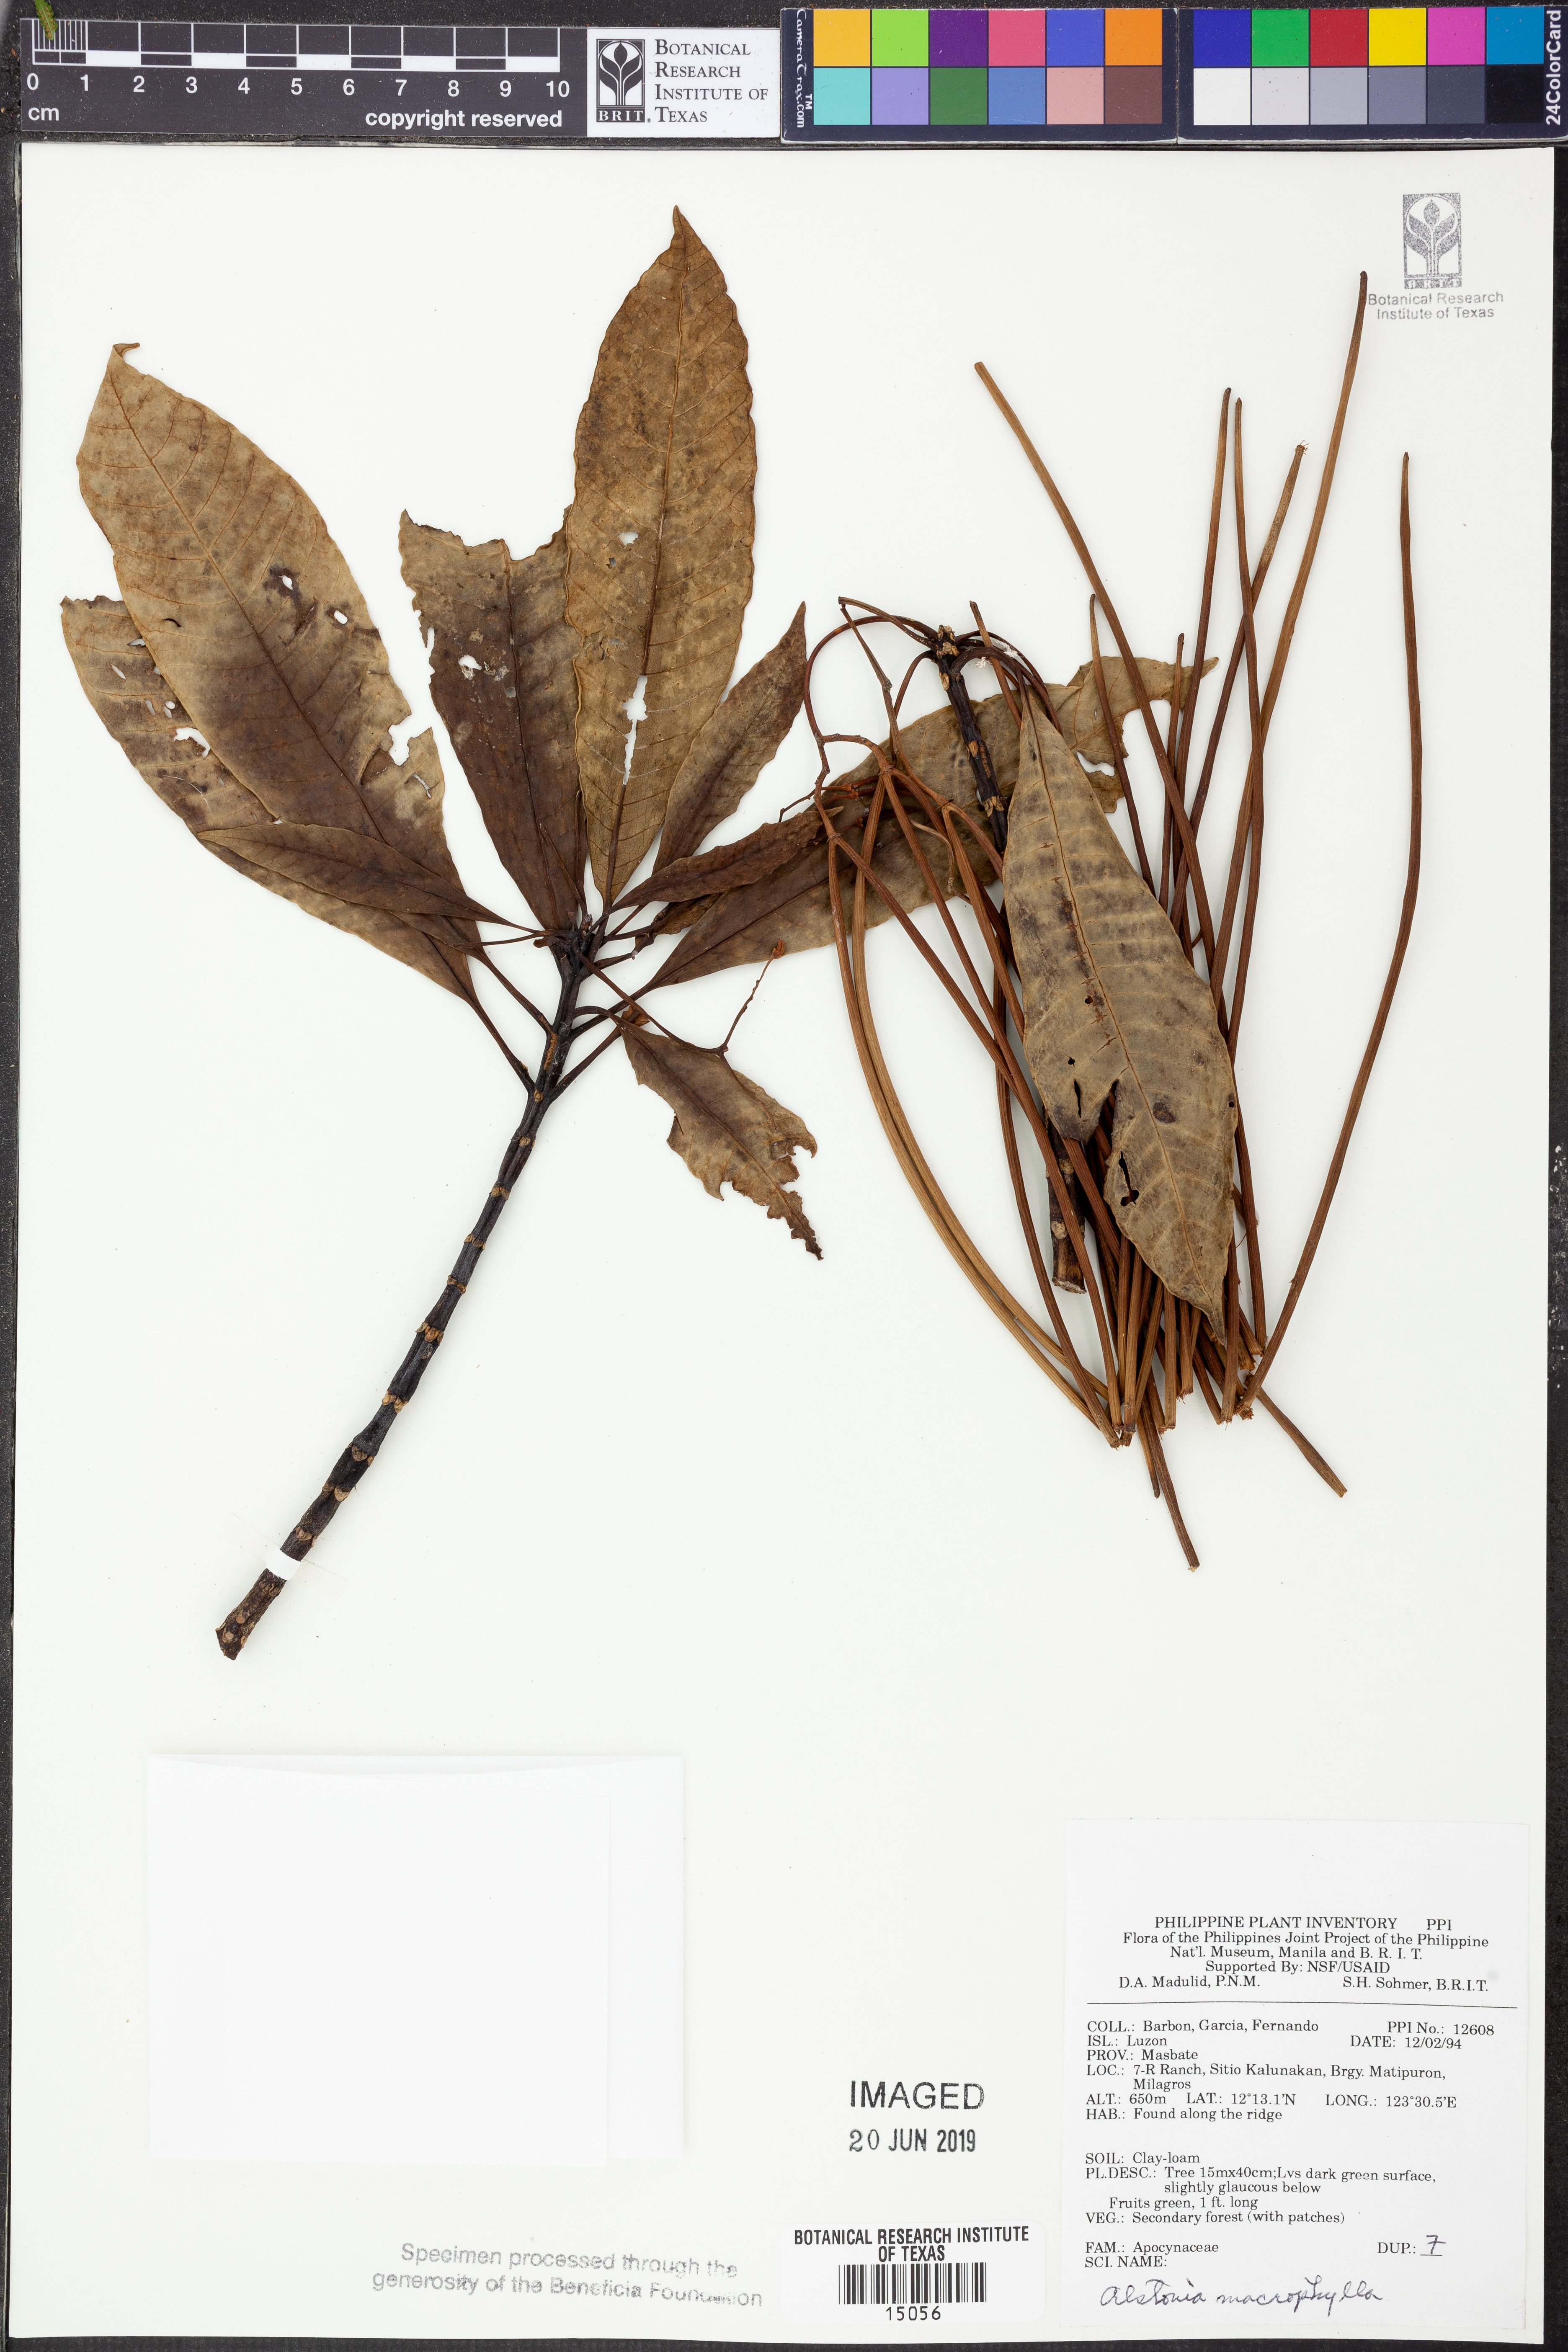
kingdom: Plantae
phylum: Tracheophyta
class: Magnoliopsida
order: Gentianales
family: Apocynaceae
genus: Alstonia
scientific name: Alstonia macrophylla
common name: Deviltree
